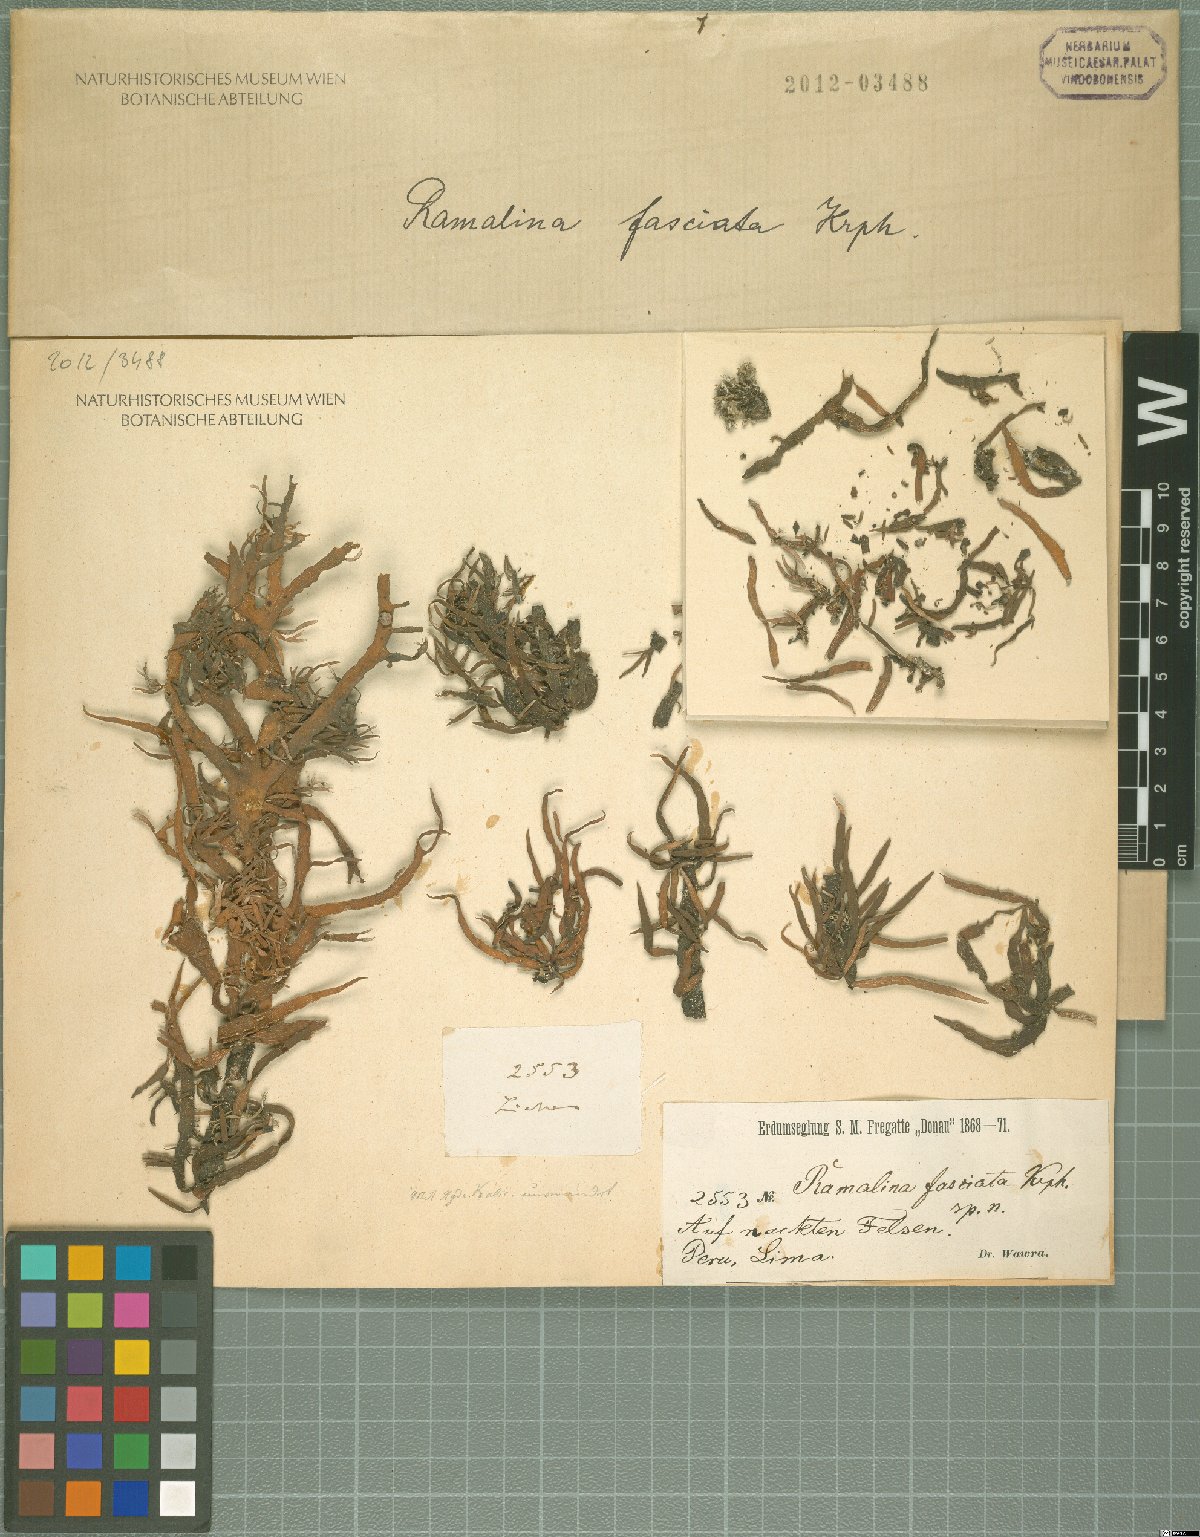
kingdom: Fungi
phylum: Ascomycota
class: Lecanoromycetes
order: Lecanorales
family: Ramalinaceae
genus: Ramalina
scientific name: Ramalina
